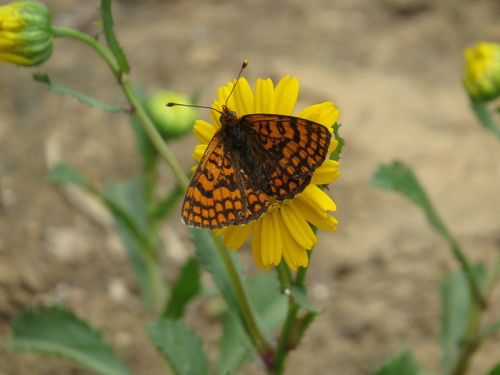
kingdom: Animalia
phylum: Arthropoda
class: Insecta
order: Lepidoptera
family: Nymphalidae
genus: Melitaea
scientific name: Melitaea deione
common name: Provençal fritillary
